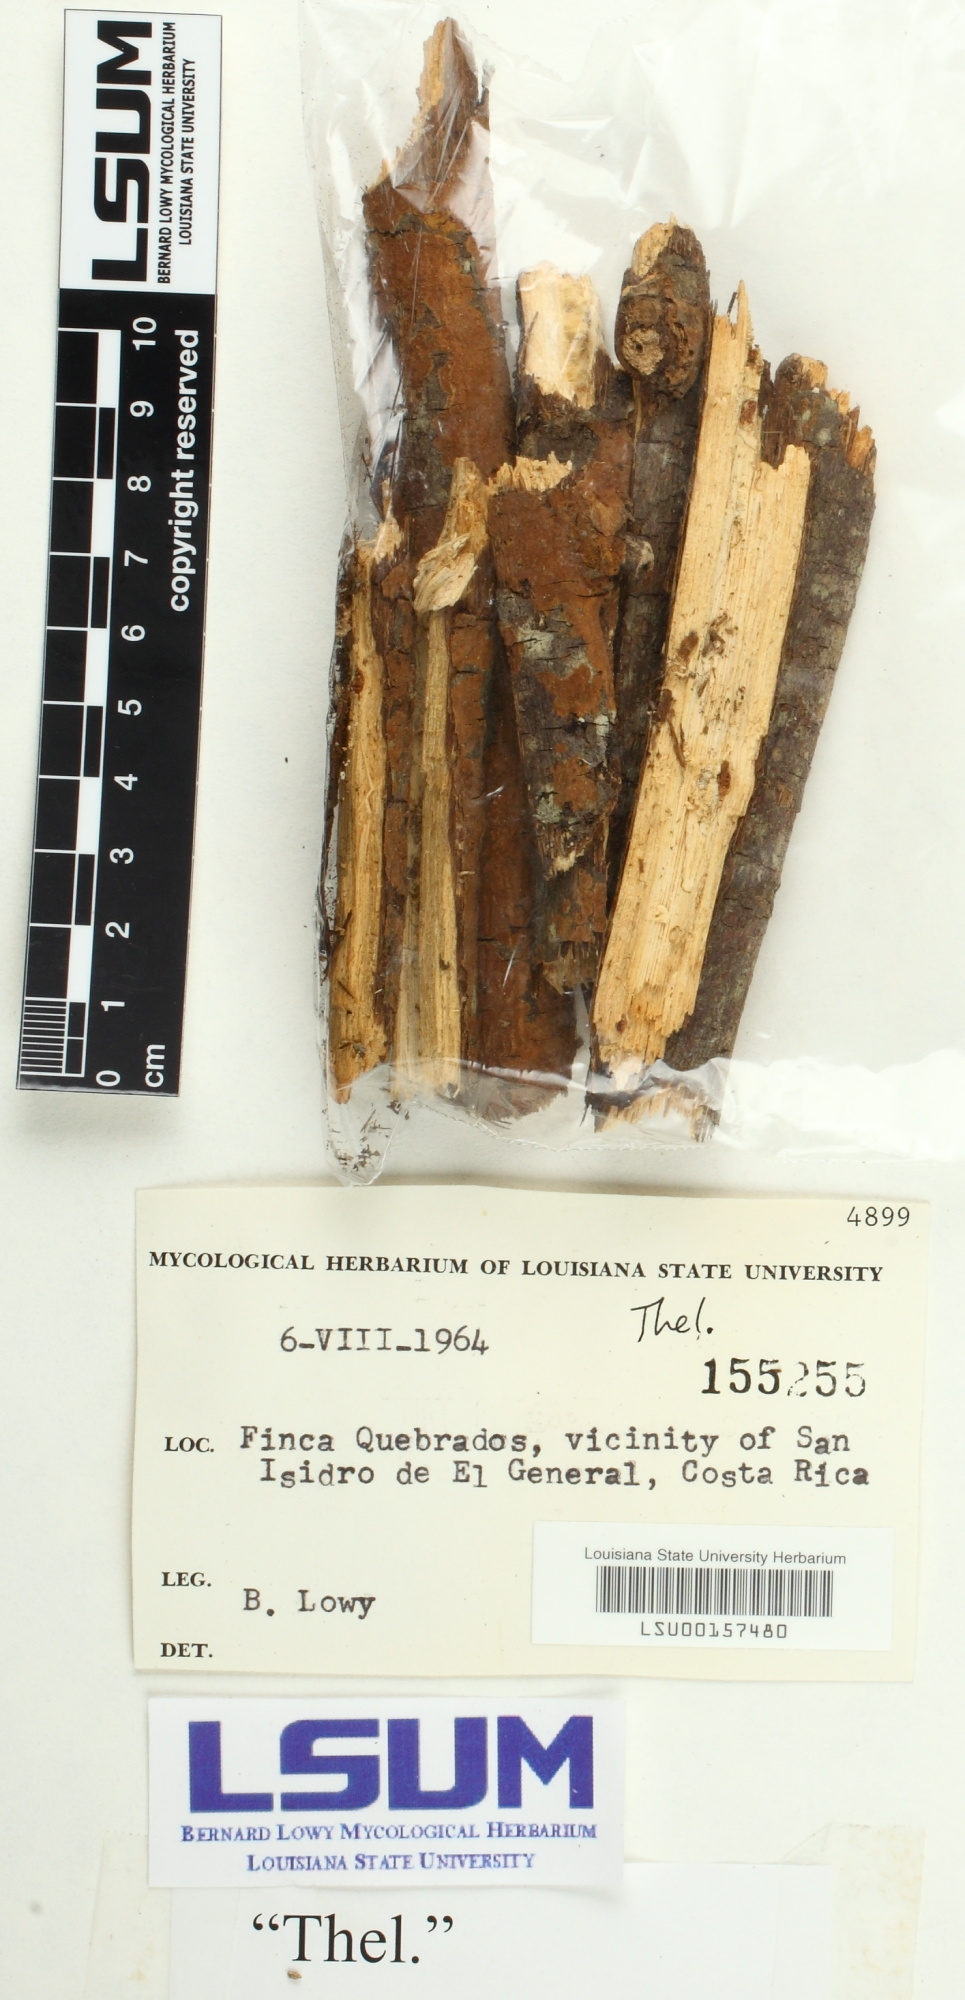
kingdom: Fungi
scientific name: Fungi
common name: Fungi
